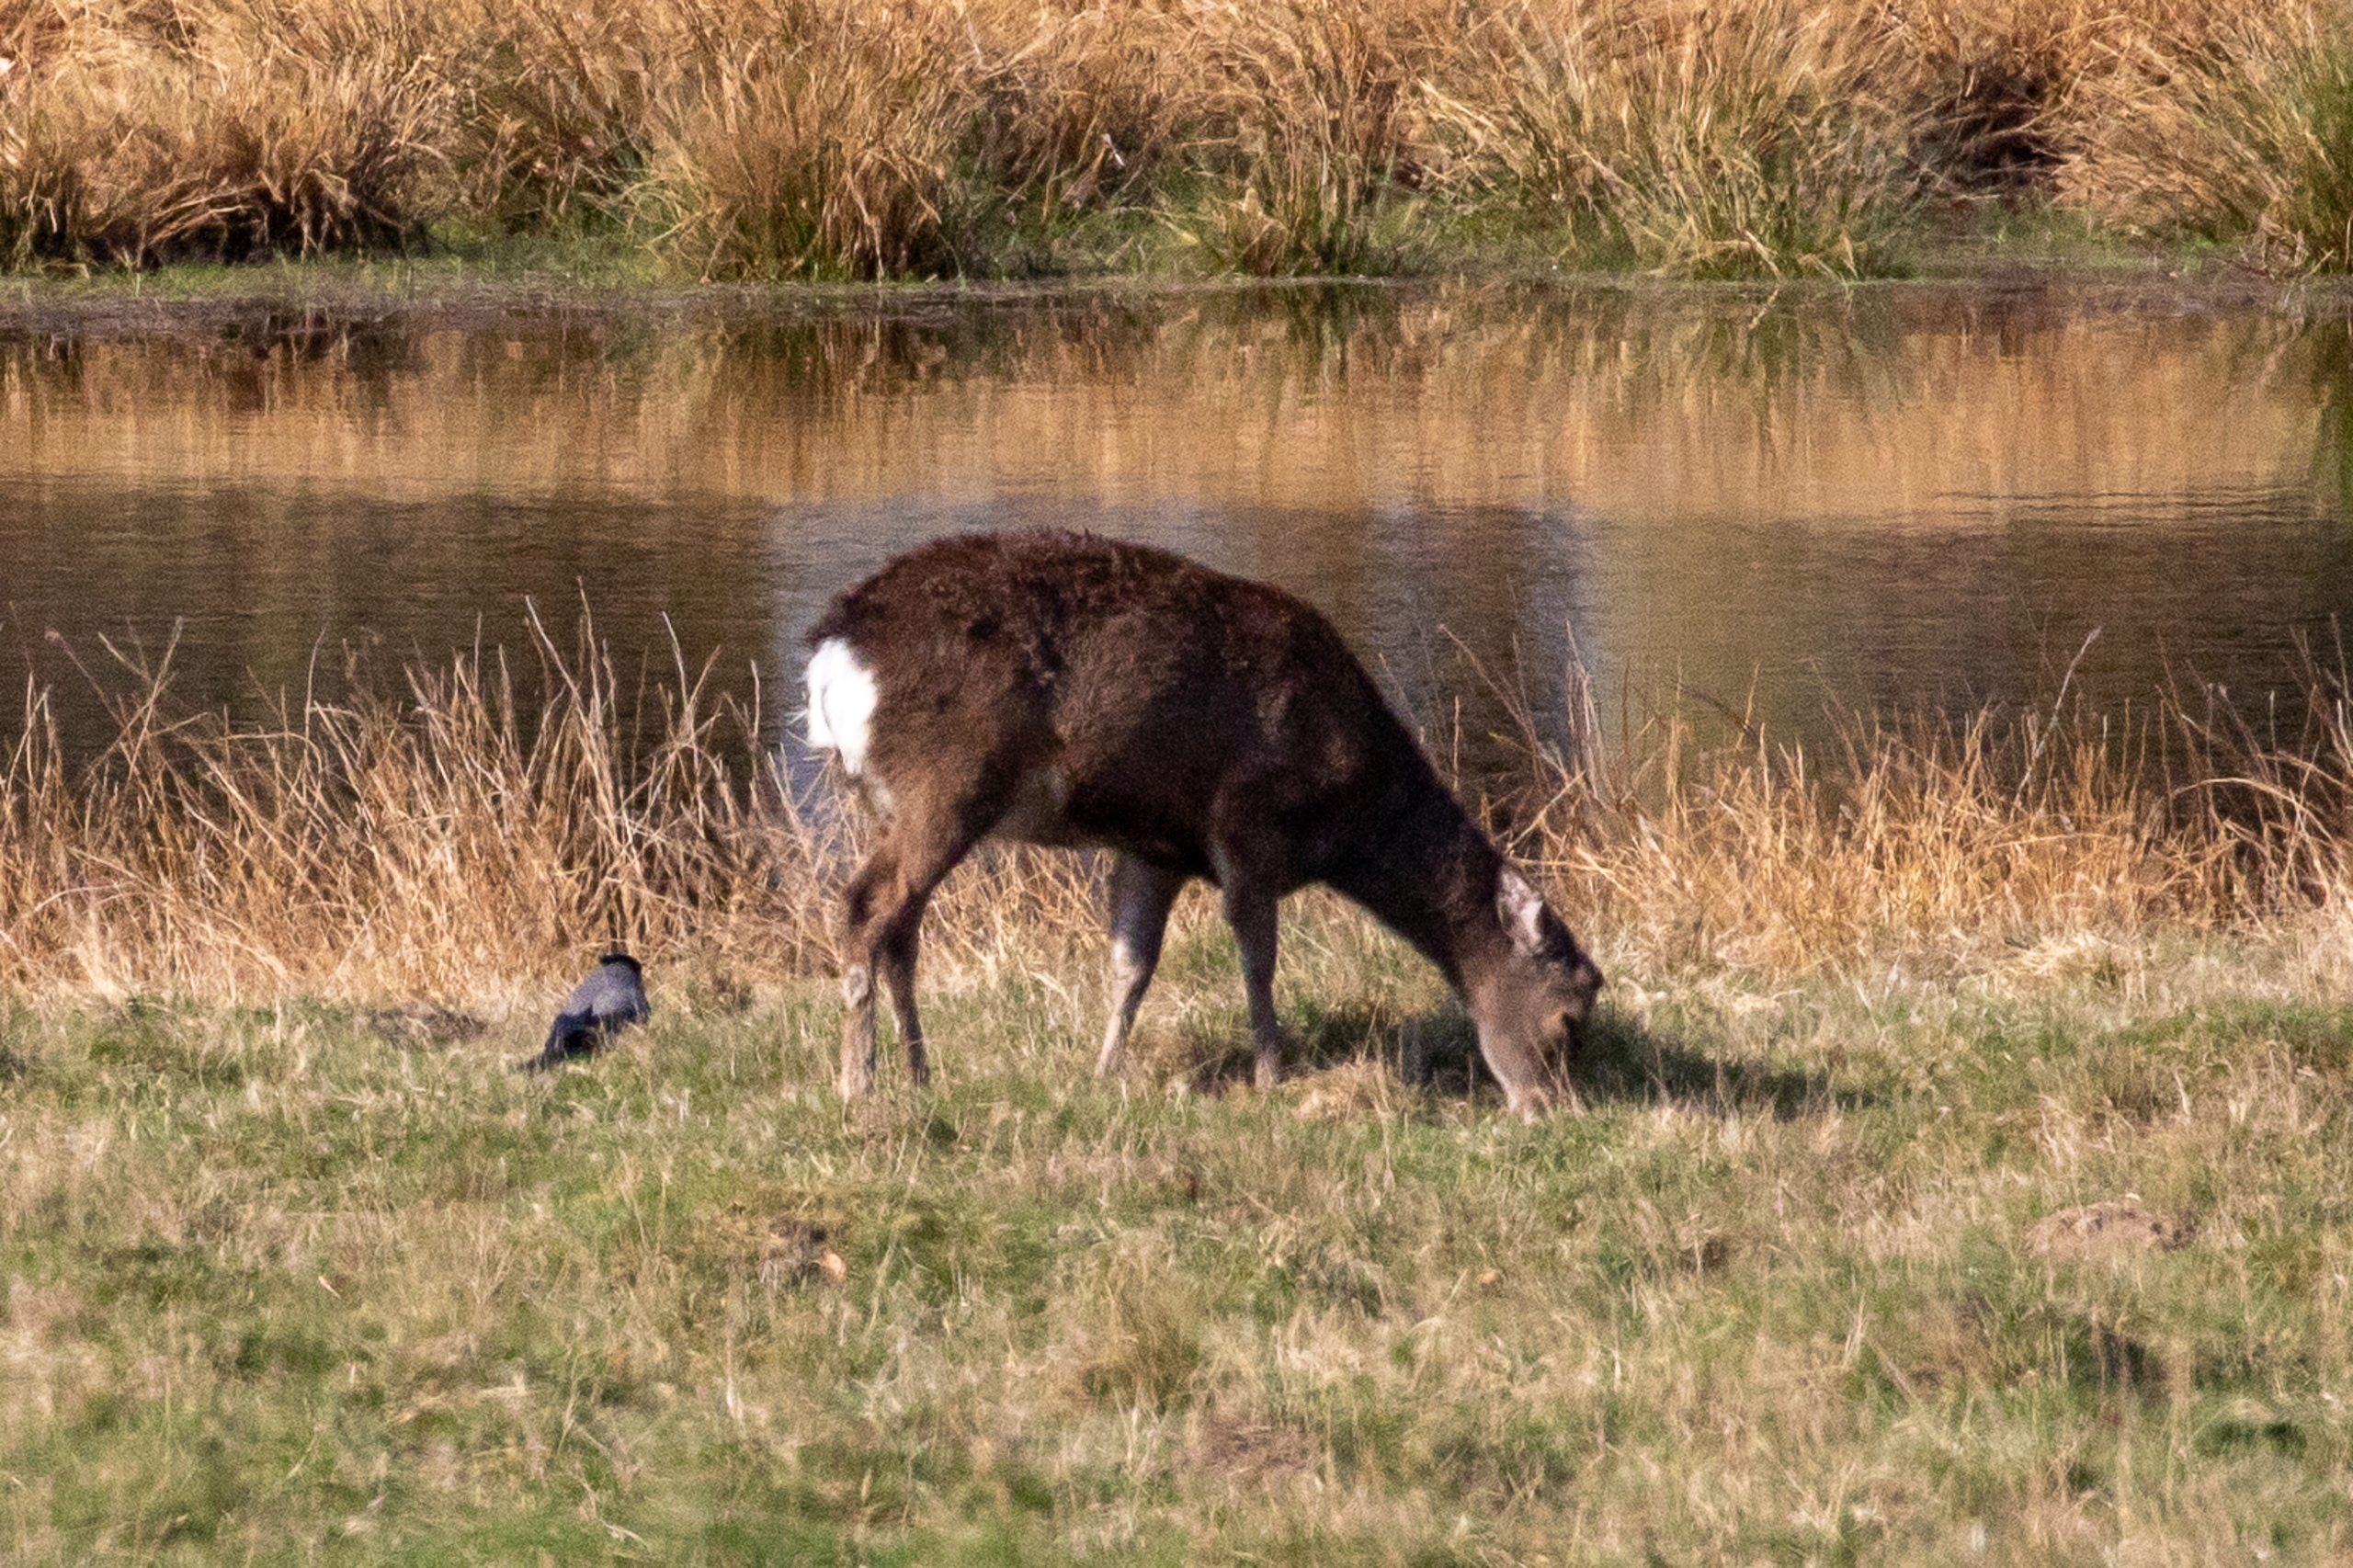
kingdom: Animalia
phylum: Chordata
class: Mammalia
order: Artiodactyla
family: Cervidae
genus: Capreolus
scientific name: Capreolus capreolus
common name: Rådyr
